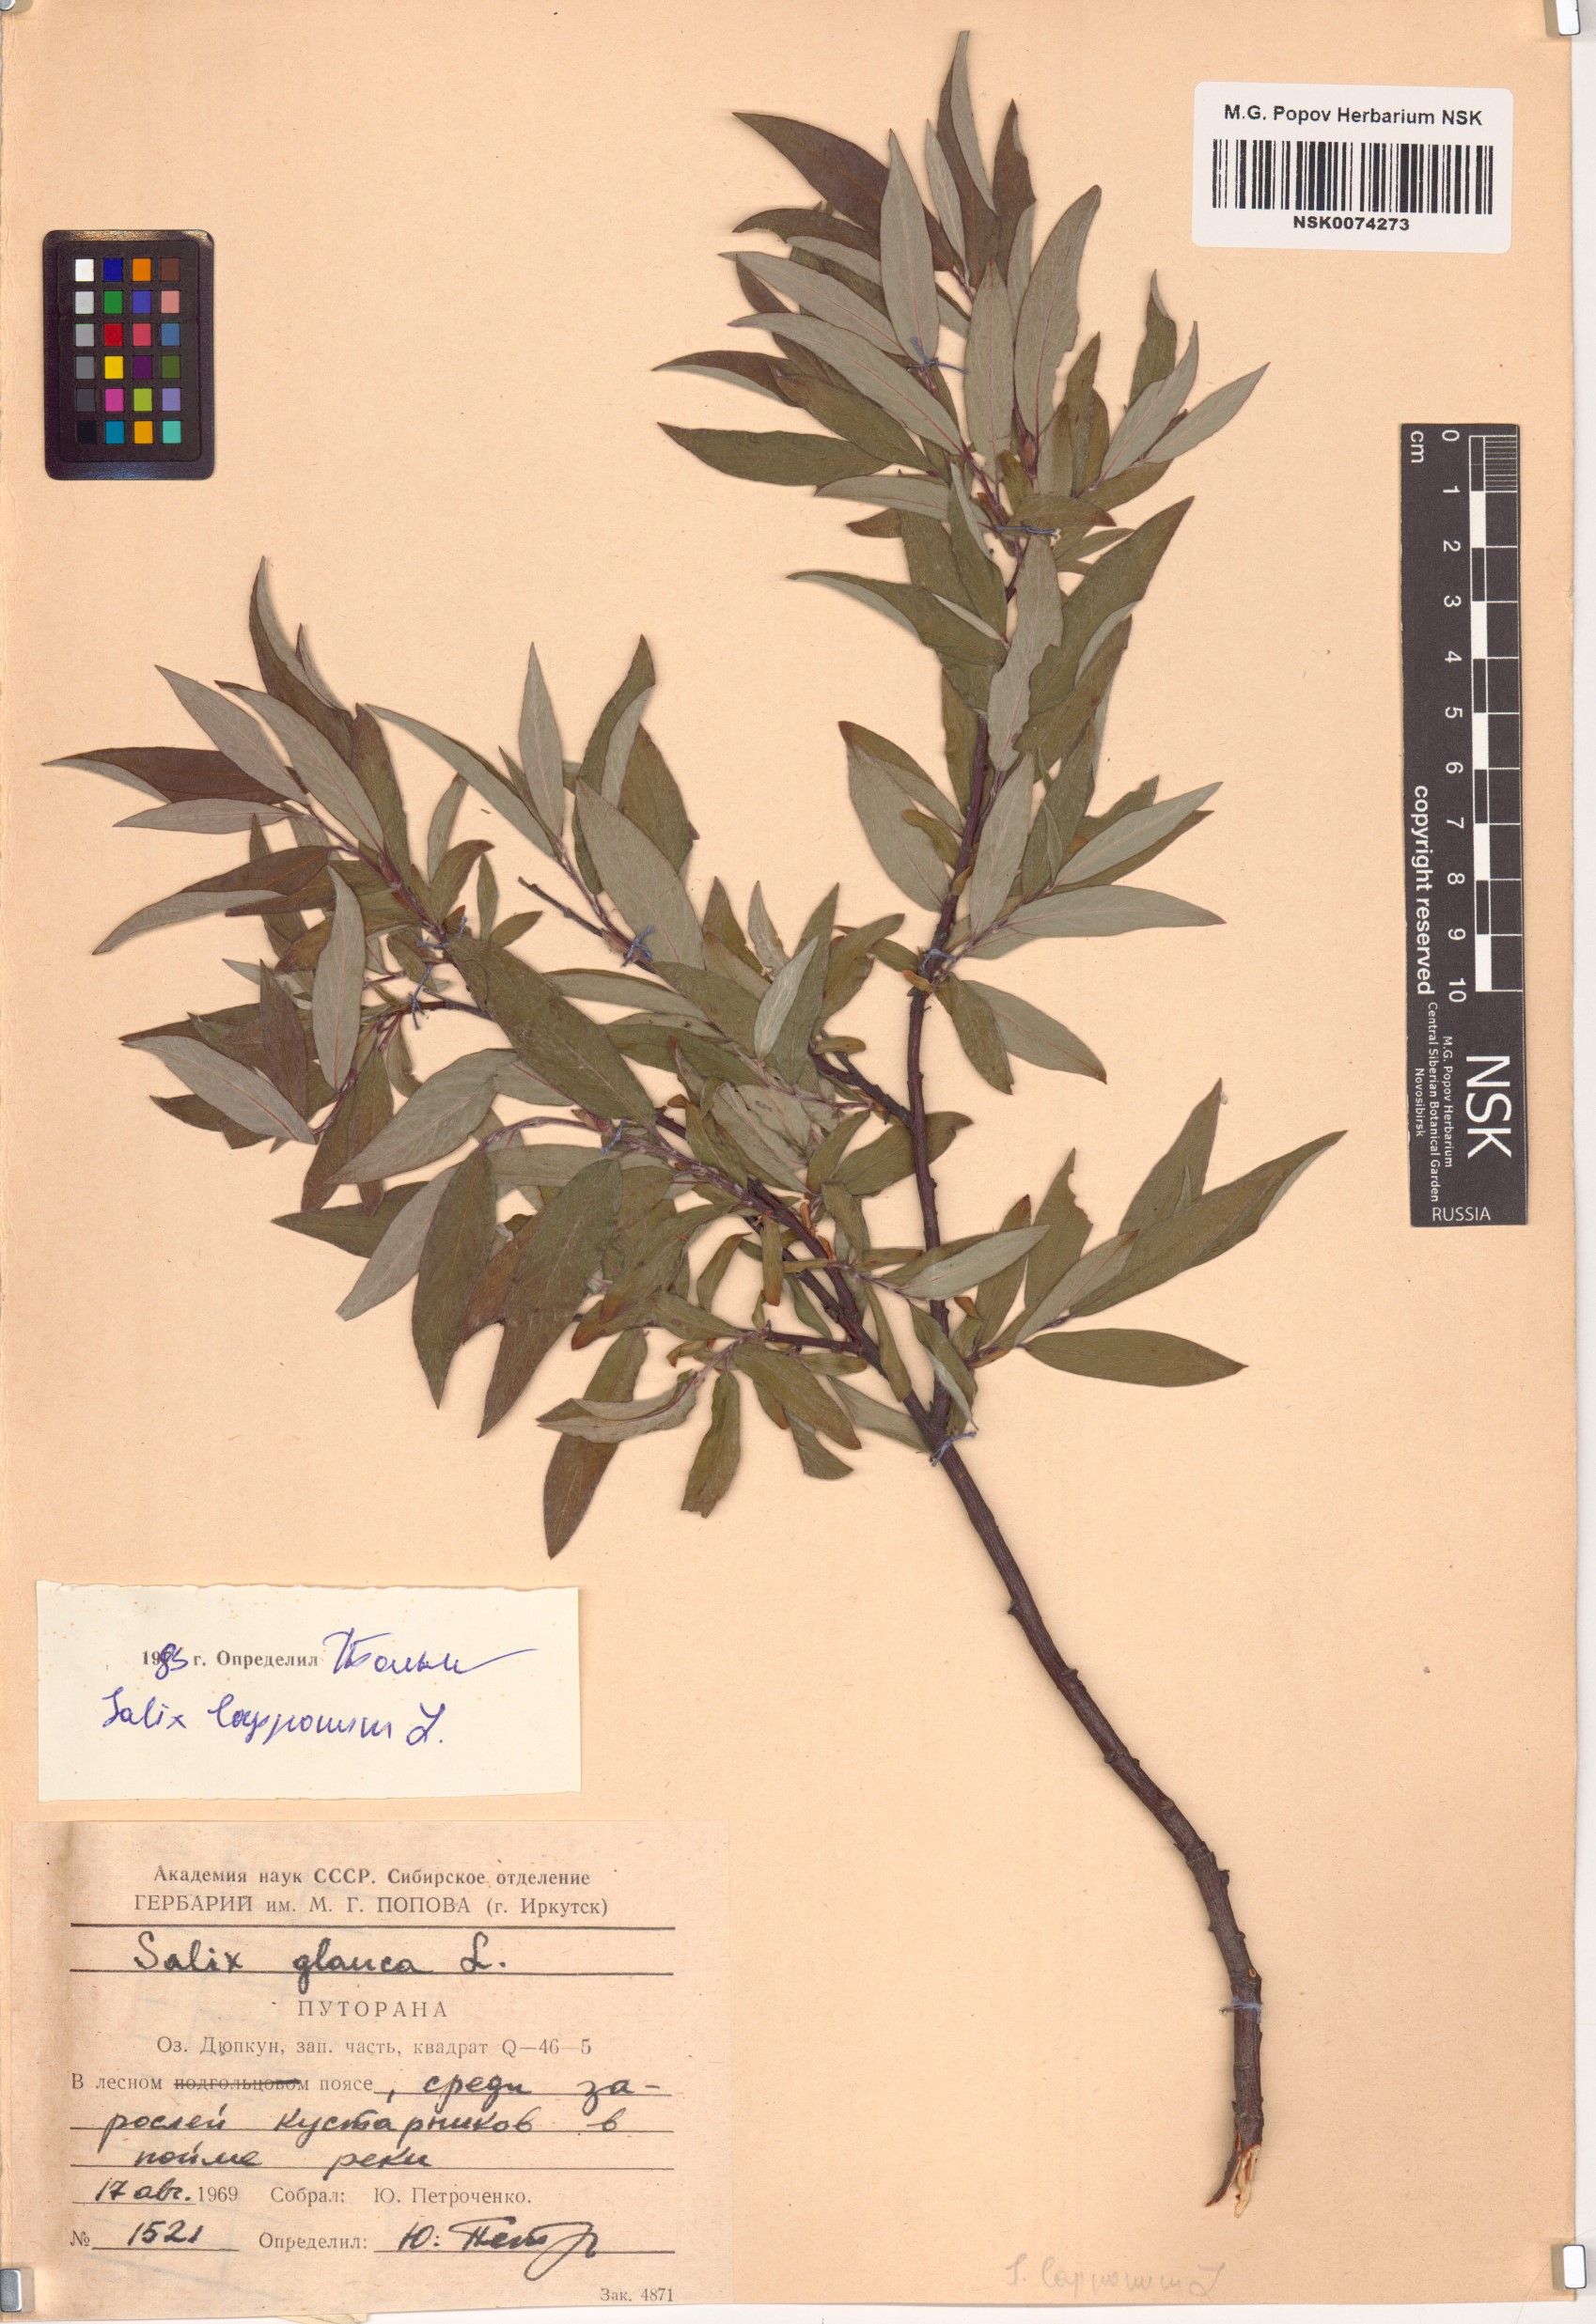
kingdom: Plantae
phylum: Tracheophyta
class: Magnoliopsida
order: Malpighiales
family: Salicaceae
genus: Salix
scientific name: Salix lapponum
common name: Downy willow
